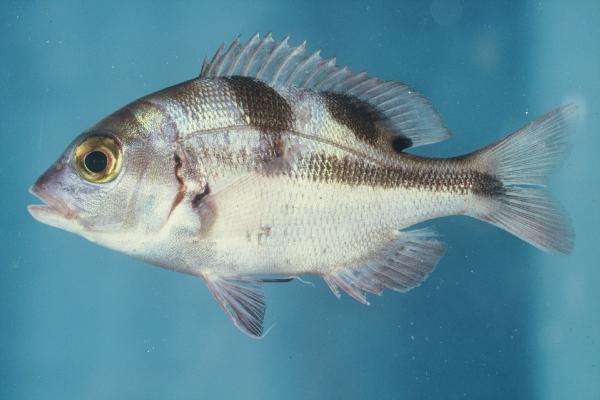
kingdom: Animalia
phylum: Chordata
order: Perciformes
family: Sparidae
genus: Chrysoblephus
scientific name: Chrysoblephus cristiceps
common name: Dageraad
